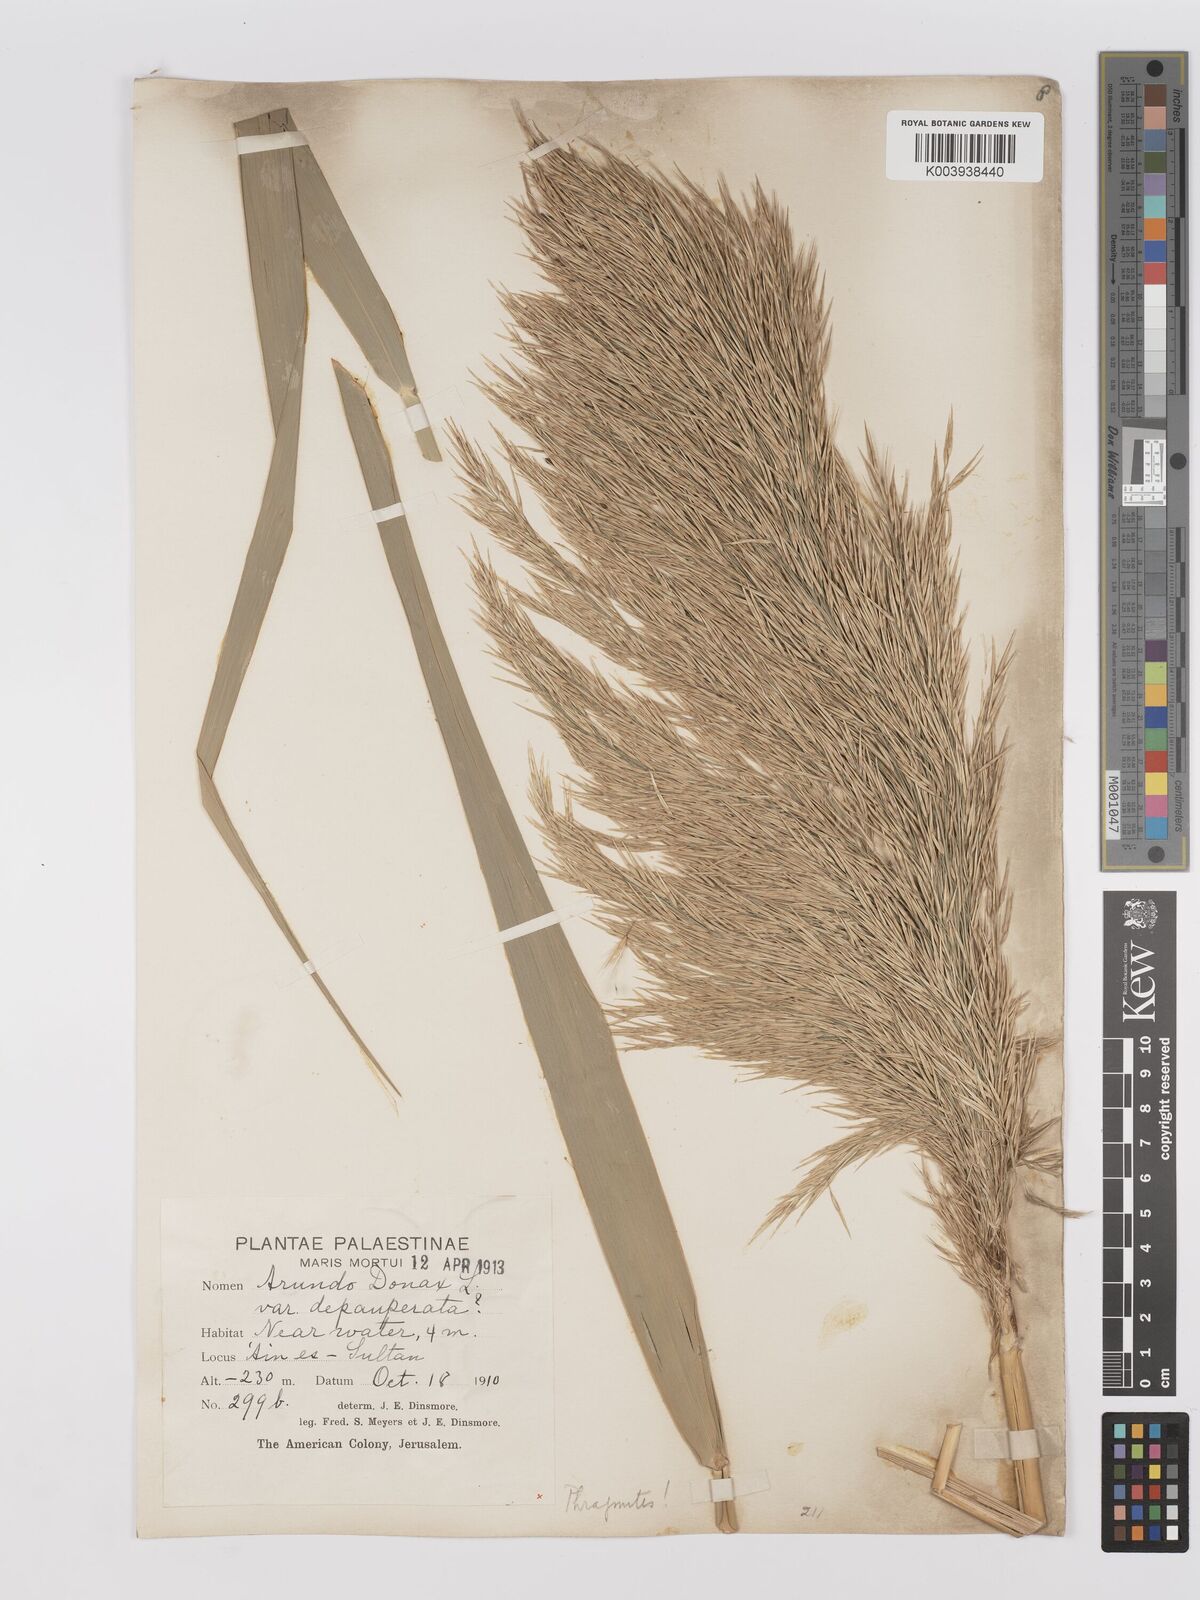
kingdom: Plantae
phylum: Tracheophyta
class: Liliopsida
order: Poales
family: Poaceae
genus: Phragmites
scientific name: Phragmites australis
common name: Common reed
